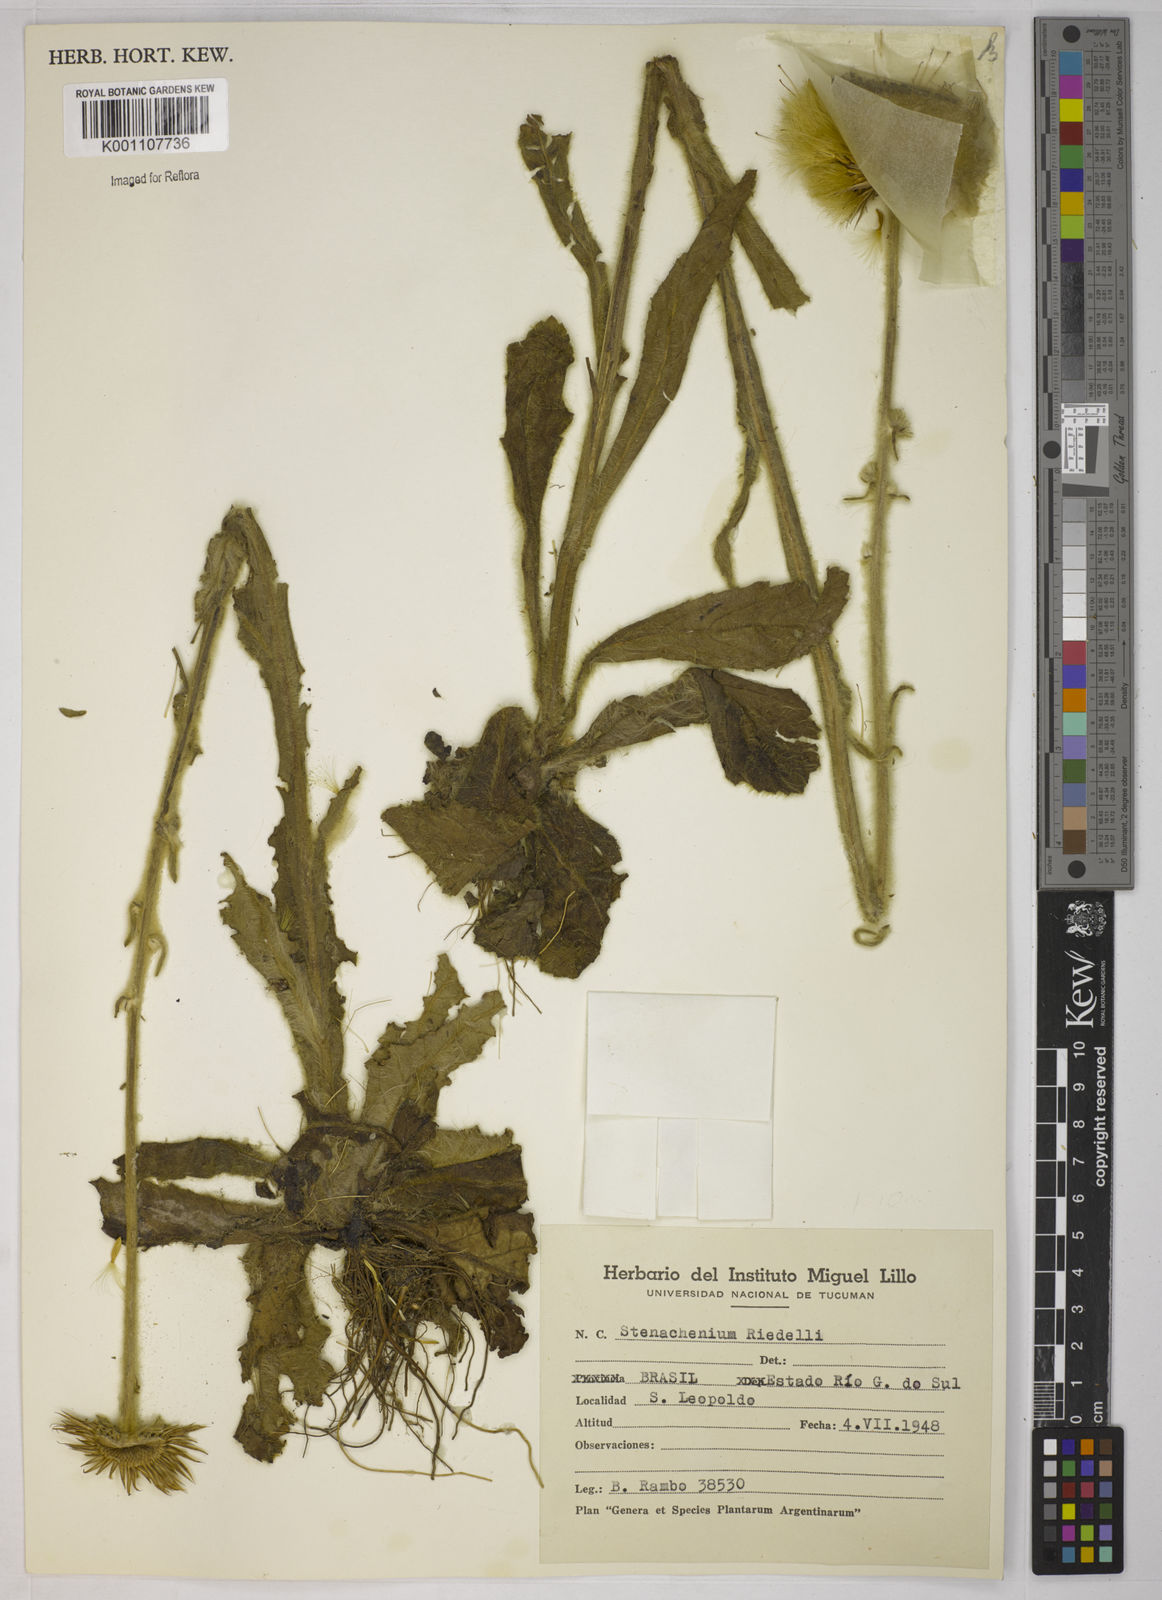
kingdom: Plantae
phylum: Tracheophyta
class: Magnoliopsida
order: Asterales
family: Asteraceae
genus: Stenachaenium
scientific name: Stenachaenium riedelii
